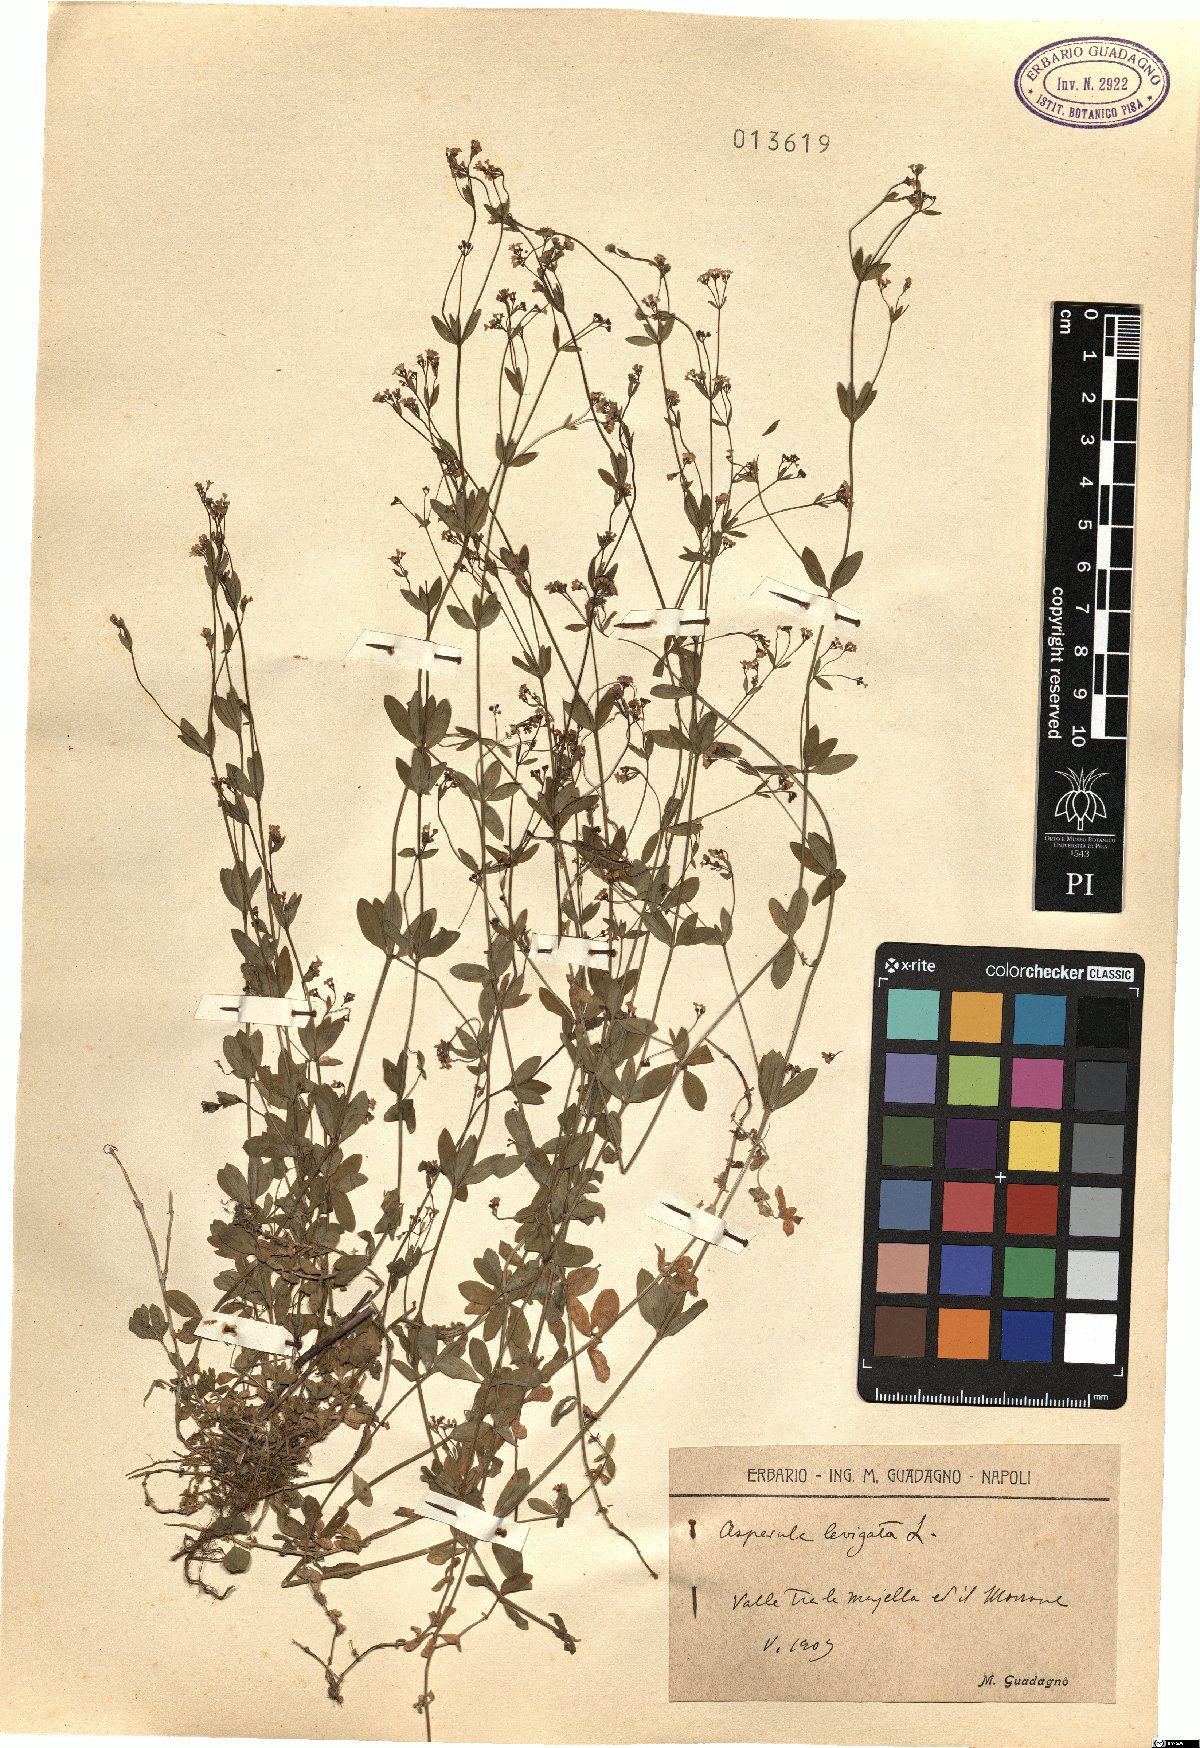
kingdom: Plantae
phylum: Tracheophyta
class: Magnoliopsida
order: Gentianales
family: Rubiaceae
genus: Asperula
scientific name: Asperula laevigata
